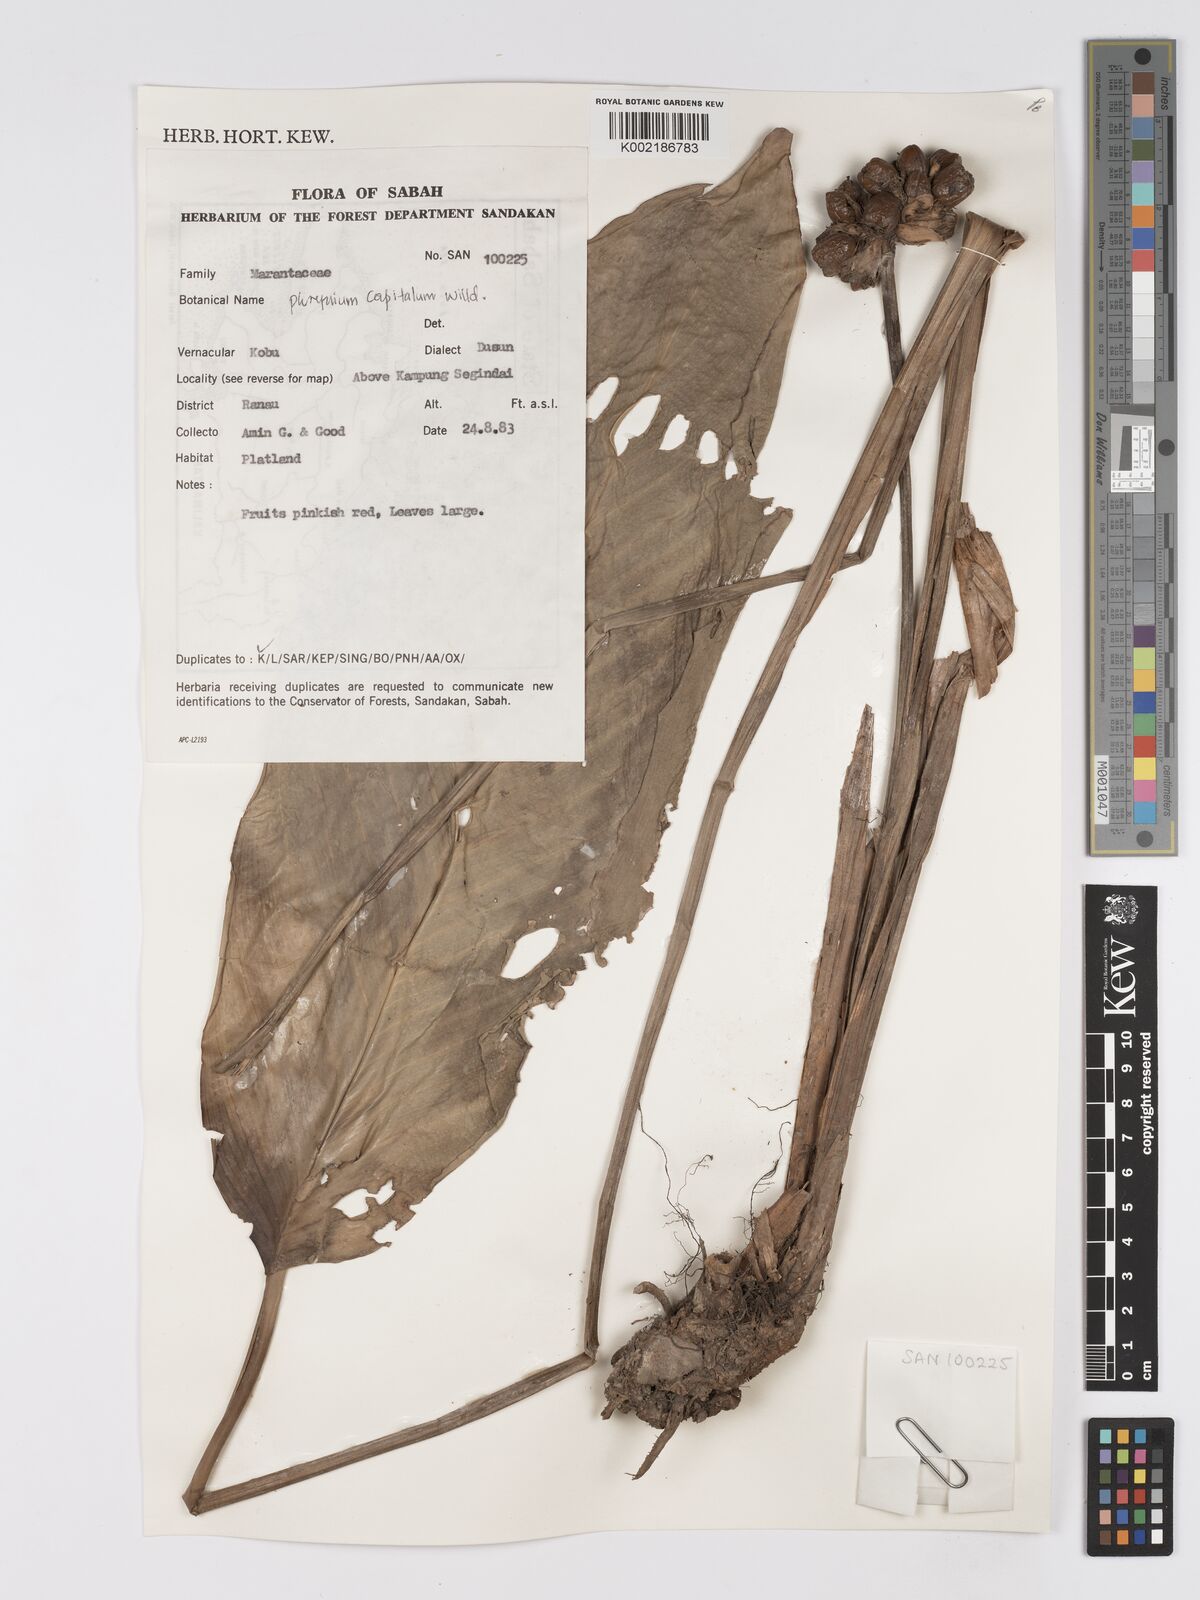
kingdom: Plantae
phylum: Tracheophyta
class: Liliopsida
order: Zingiberales
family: Marantaceae
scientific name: Marantaceae
